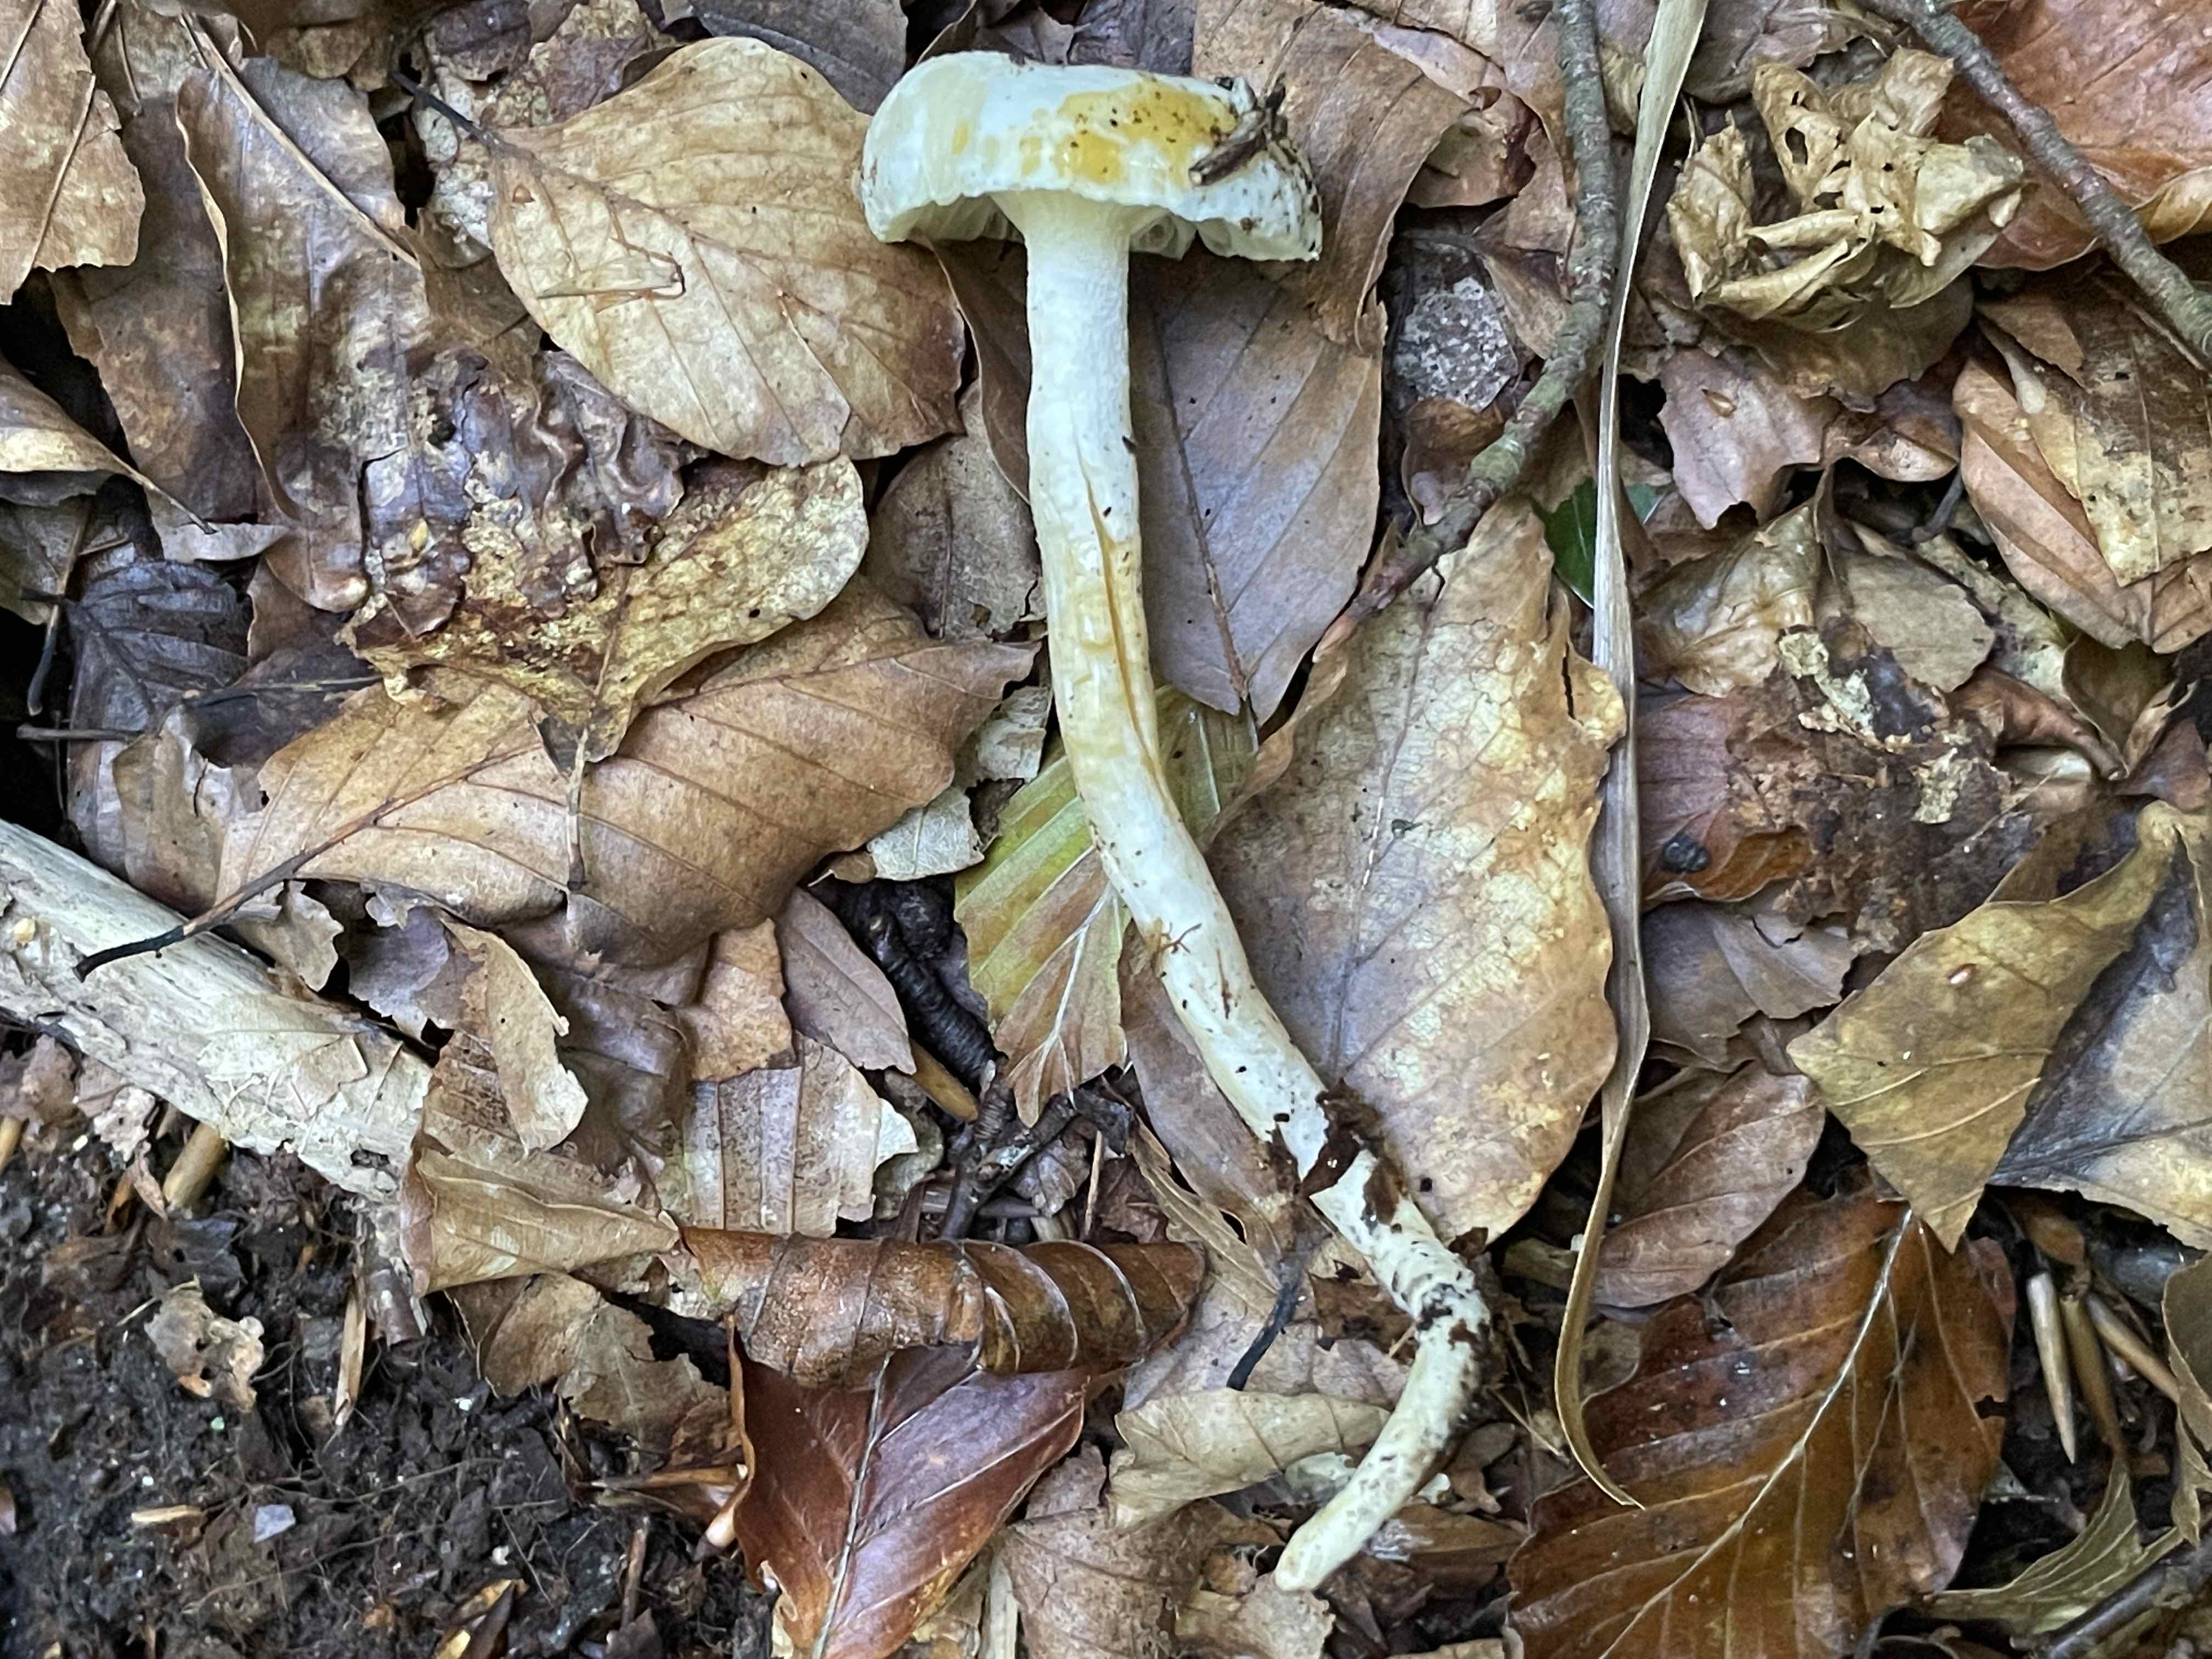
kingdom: Fungi
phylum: Basidiomycota
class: Agaricomycetes
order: Agaricales
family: Hygrophoraceae
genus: Hygrophorus
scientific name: Hygrophorus discoxanthus
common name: ildelugtende sneglehat
